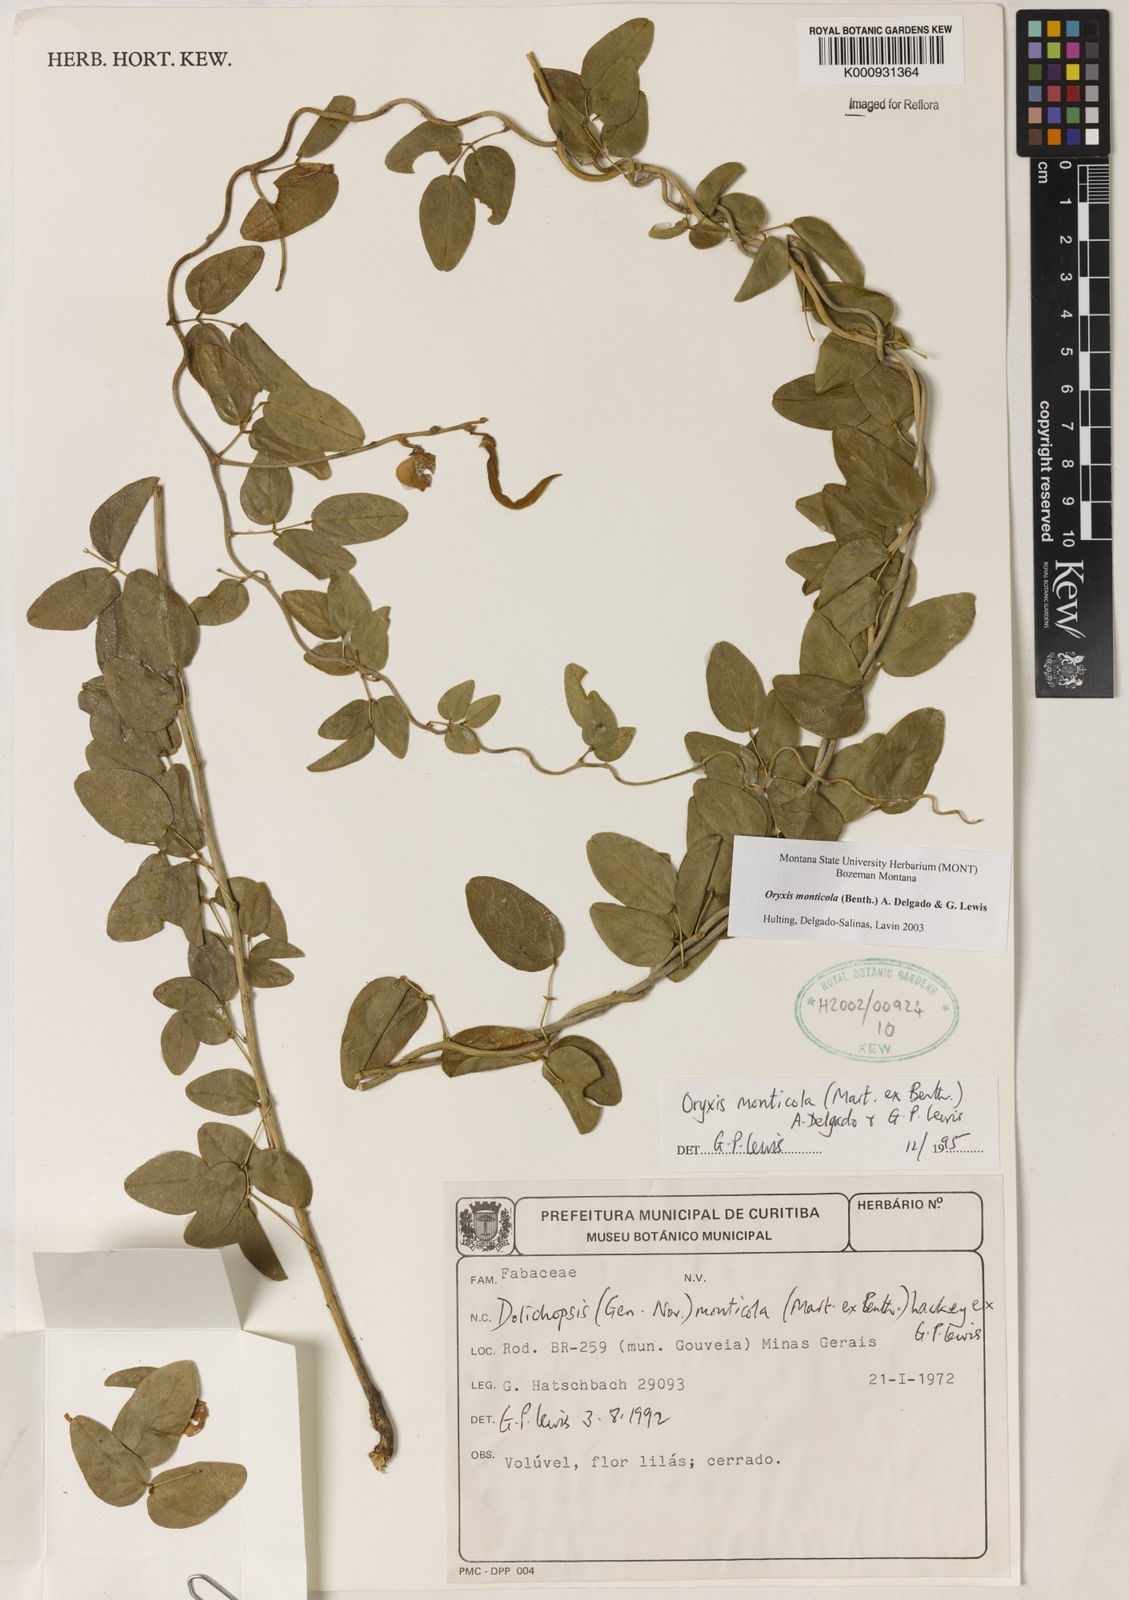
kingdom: Plantae
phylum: Tracheophyta
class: Magnoliopsida
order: Fabales
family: Fabaceae
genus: Dolichopsis
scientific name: Dolichopsis monticola
